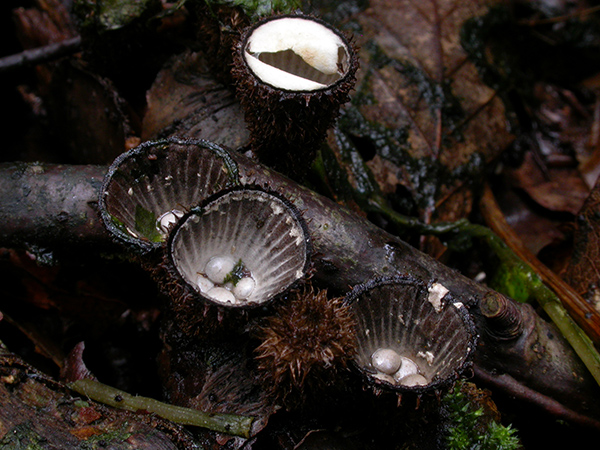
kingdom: Fungi
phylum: Basidiomycota
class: Agaricomycetes
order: Agaricales
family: Agaricaceae
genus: Cyathus
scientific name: Cyathus striatus
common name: stribet redesvamp
